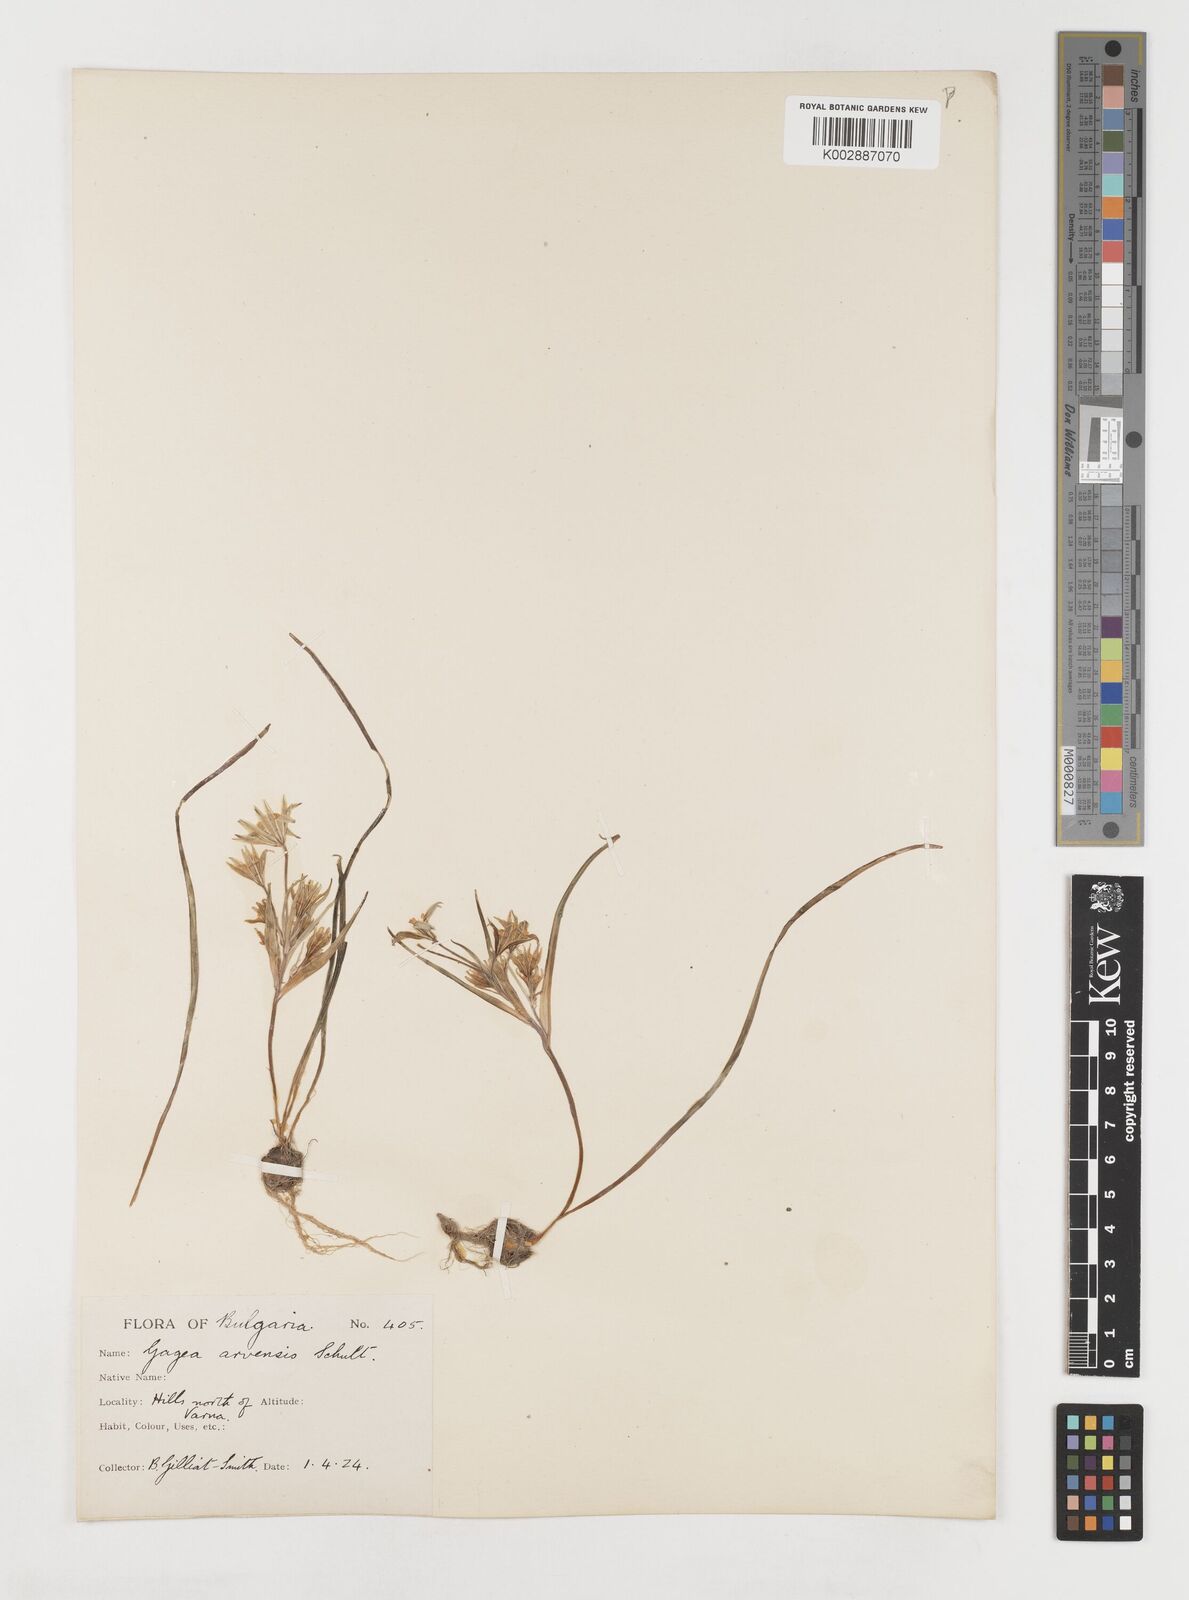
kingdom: Plantae
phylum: Tracheophyta
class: Liliopsida
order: Liliales
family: Liliaceae
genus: Gagea
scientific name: Gagea minima
